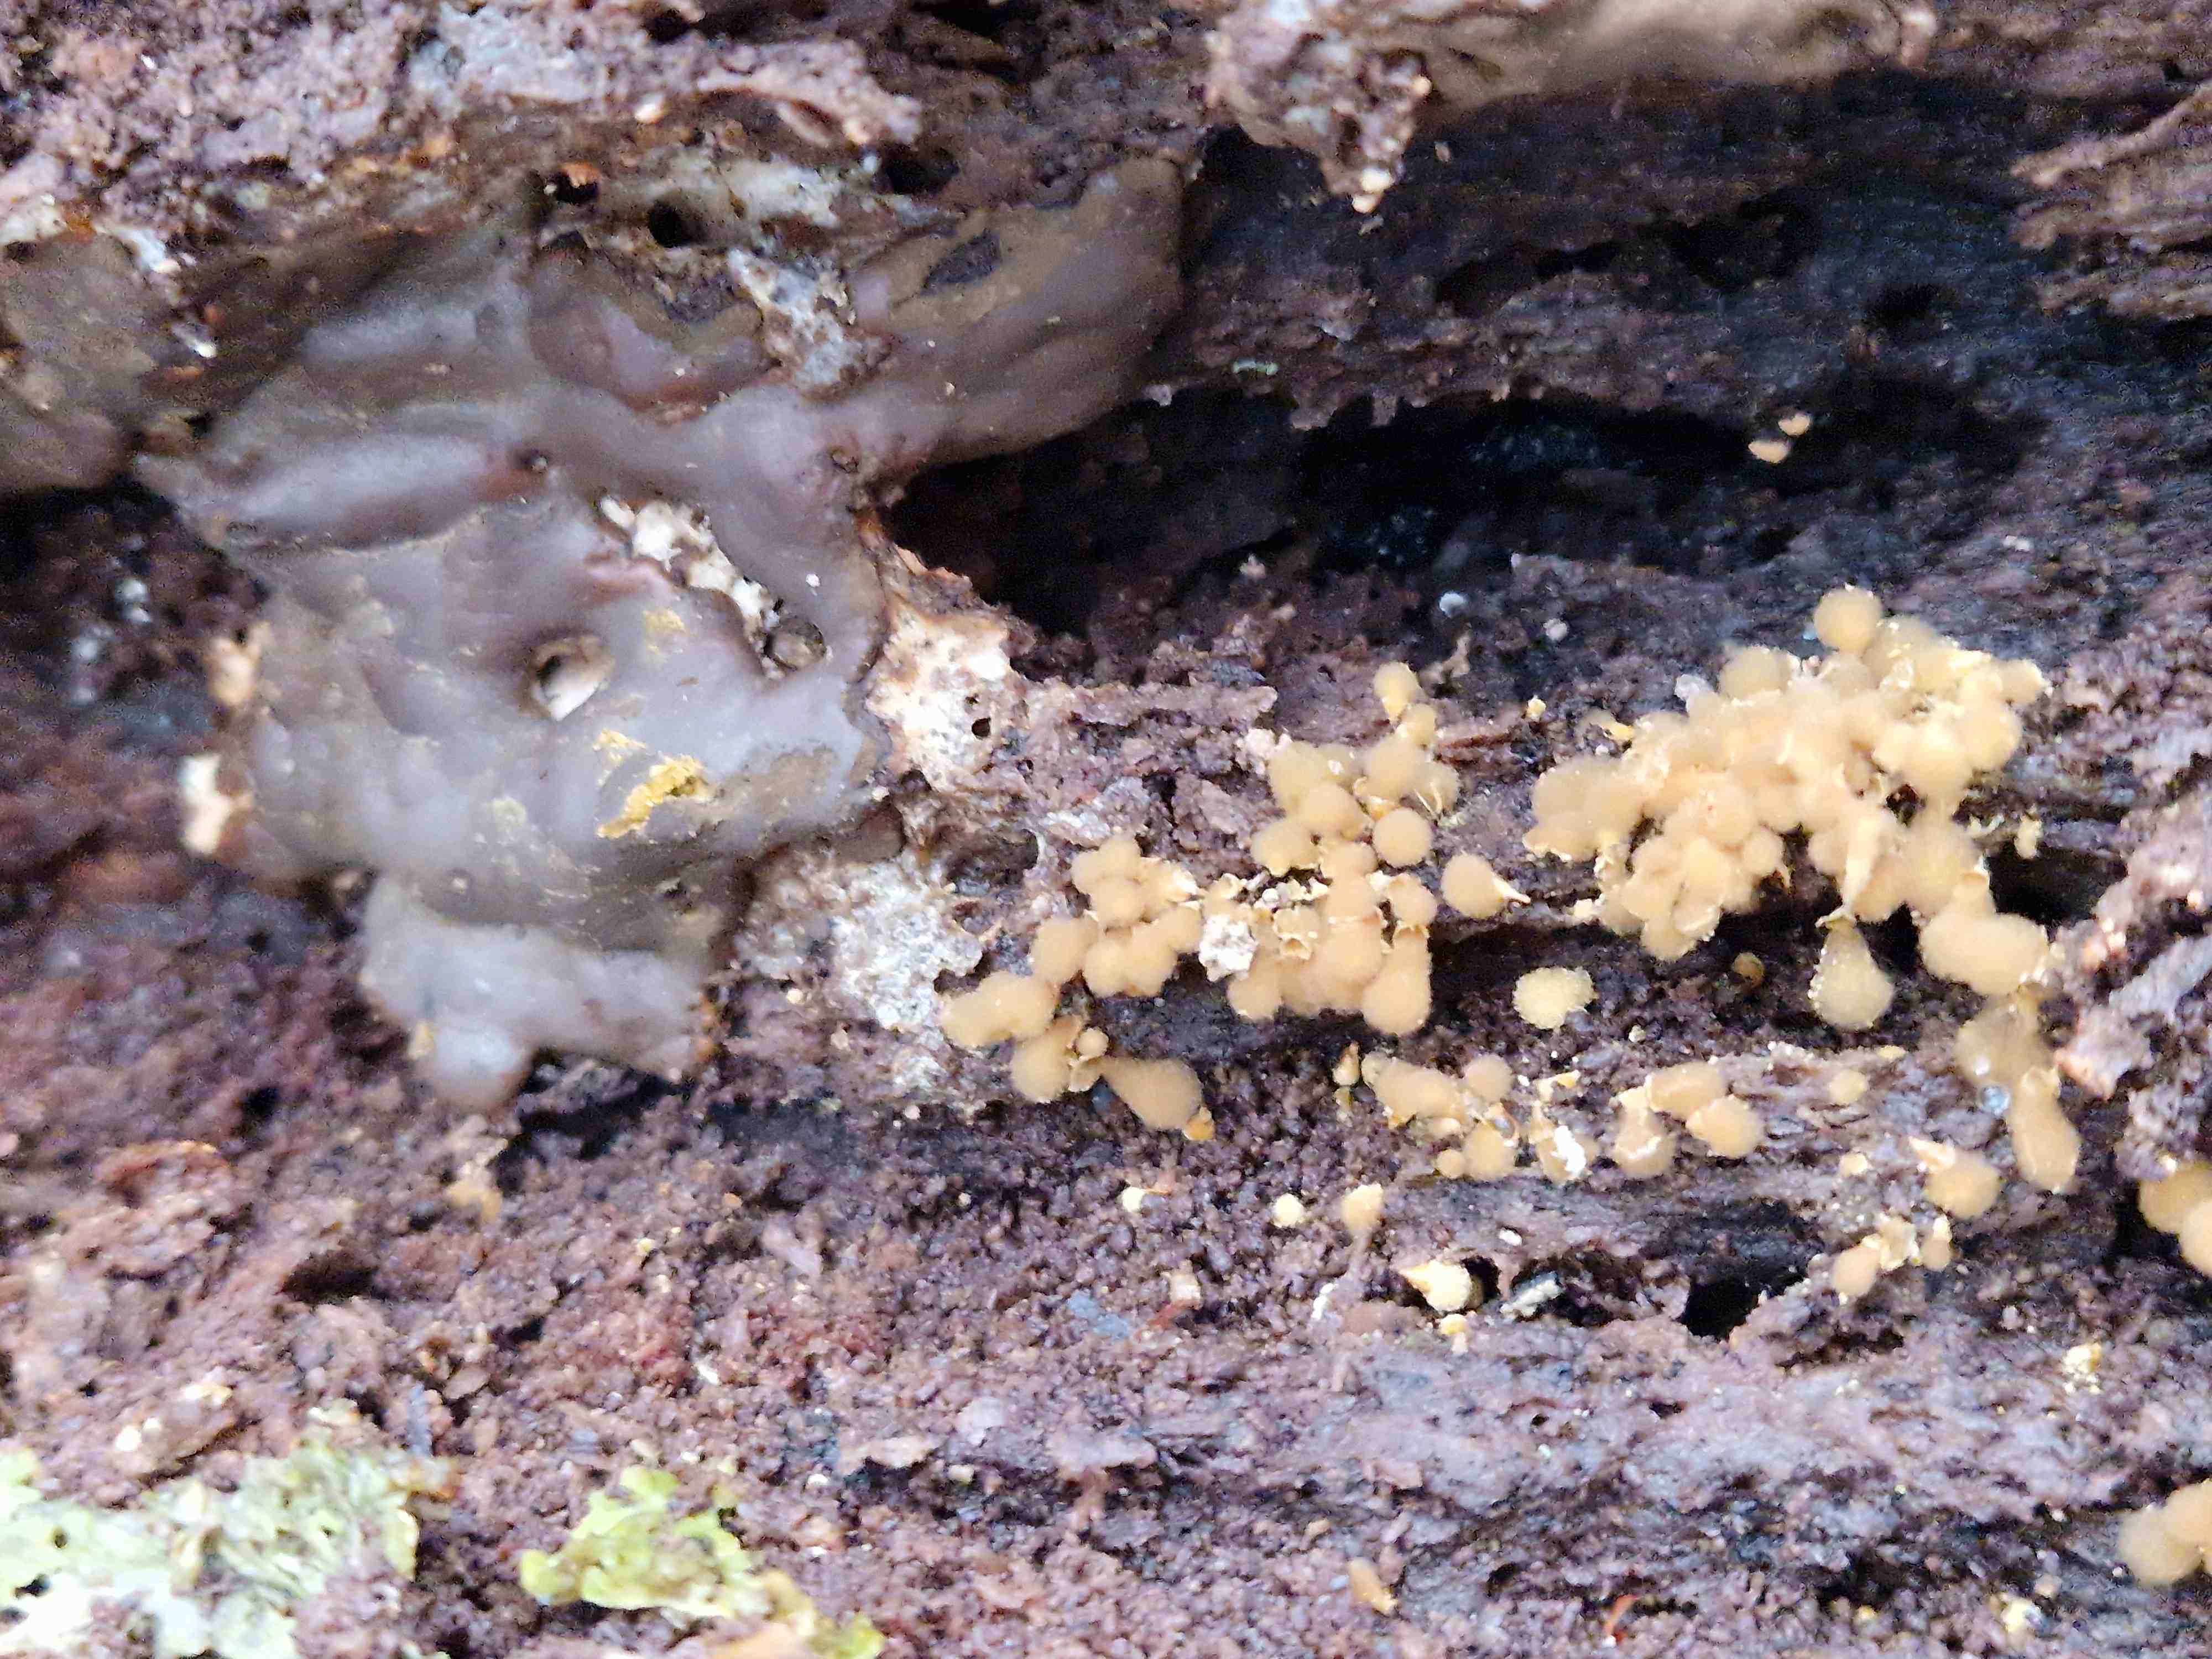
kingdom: Protozoa
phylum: Mycetozoa
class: Myxomycetes
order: Trichiales
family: Dictydiaethaliaceae
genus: Dictydiaethalium
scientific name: Dictydiaethalium plumbeum
